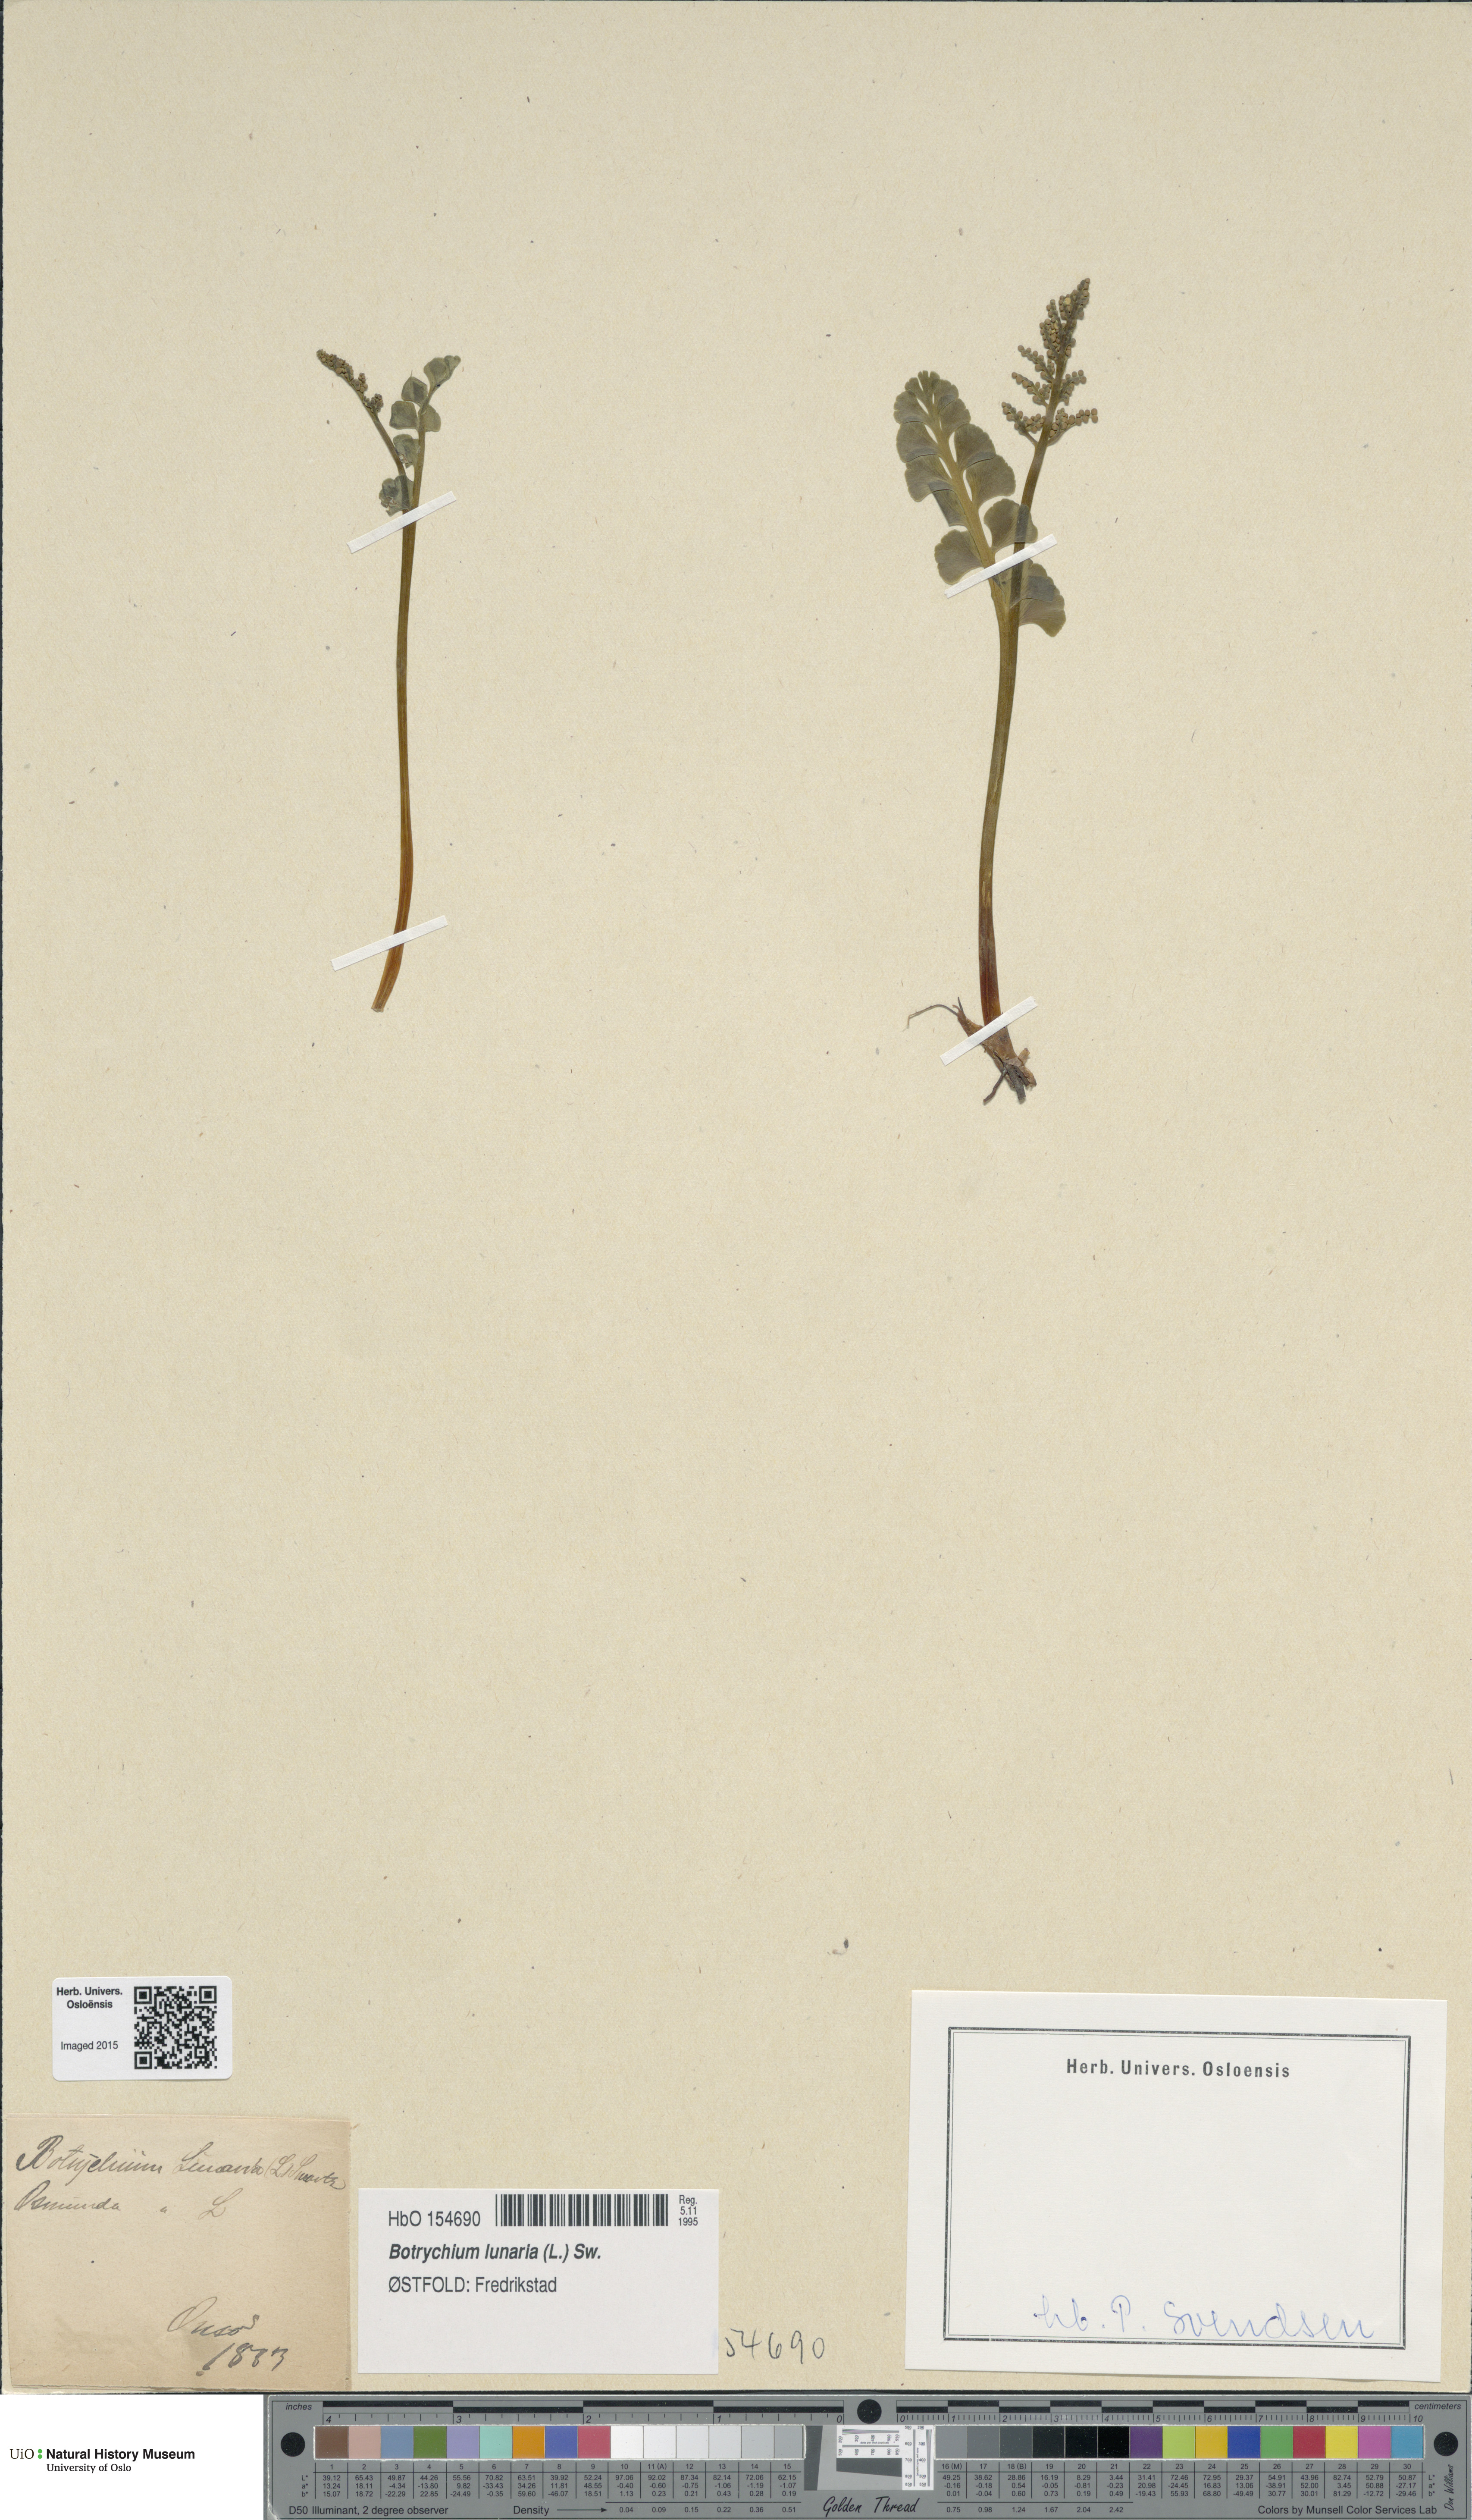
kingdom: Plantae
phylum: Tracheophyta
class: Polypodiopsida
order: Ophioglossales
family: Ophioglossaceae
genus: Botrychium
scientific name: Botrychium lunaria
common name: Moonwort
